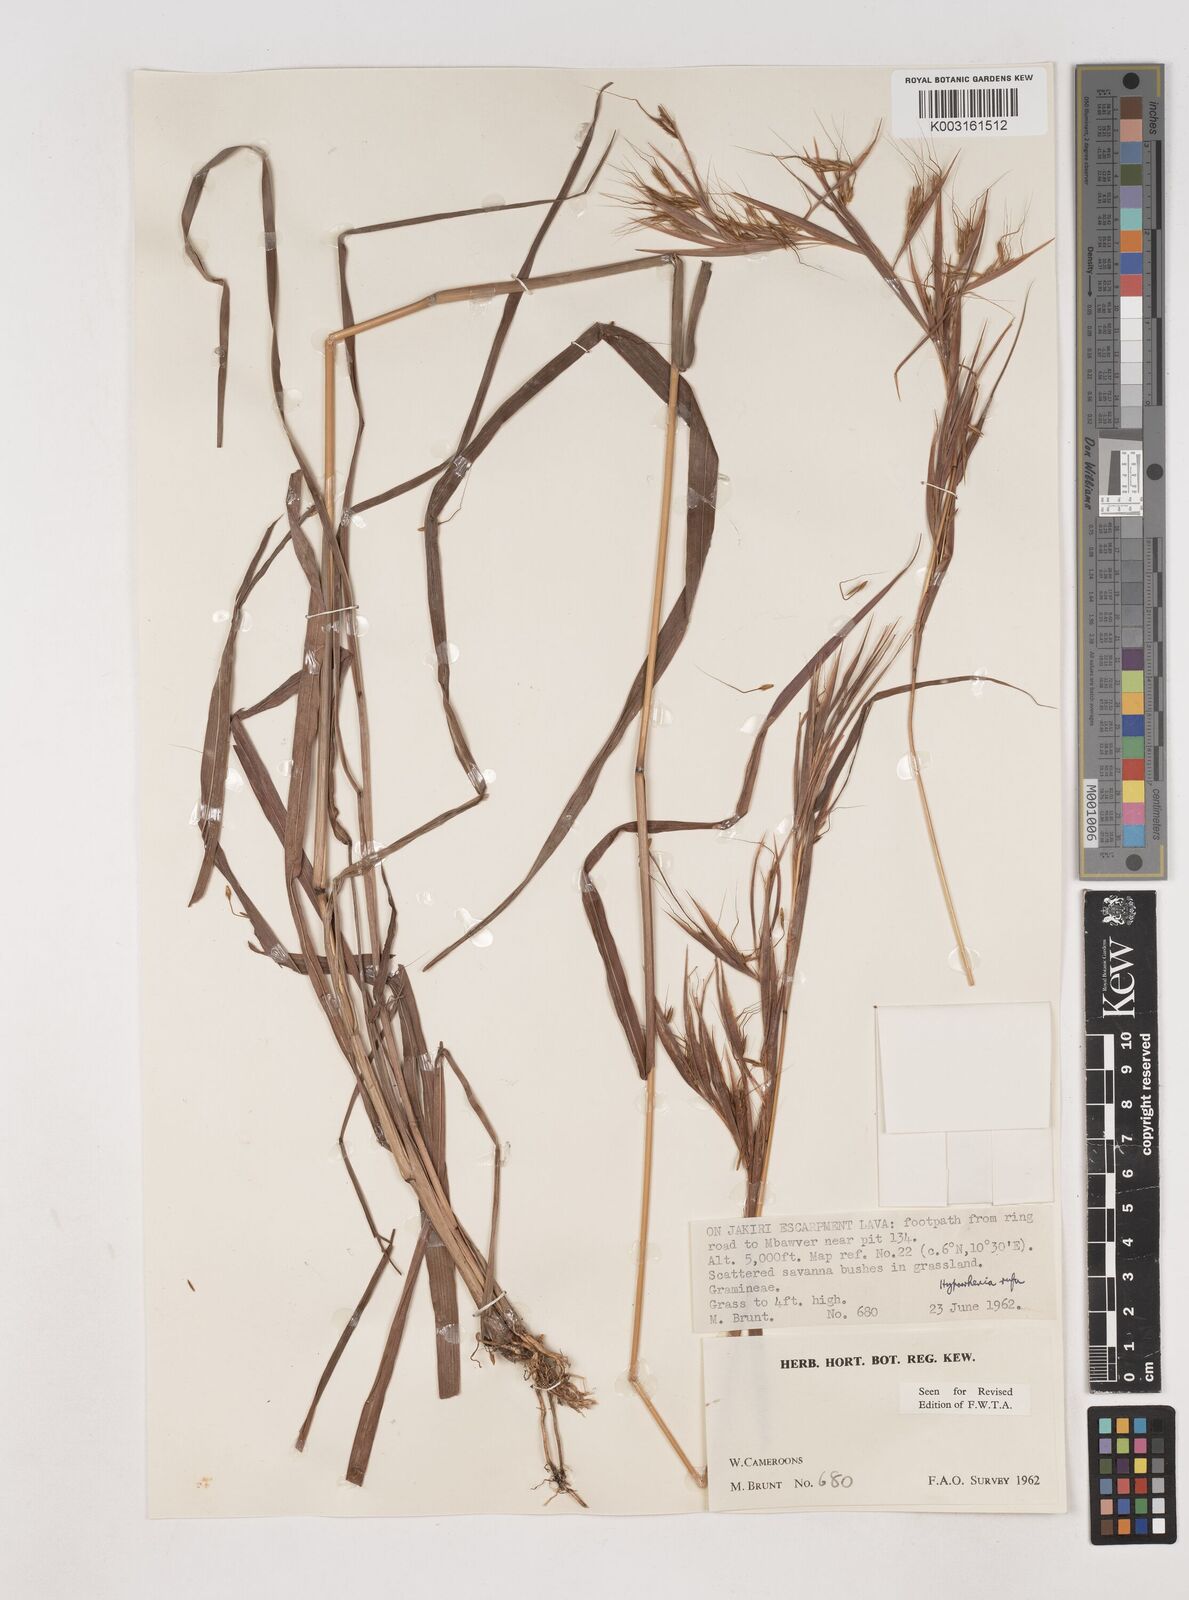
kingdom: Plantae
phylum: Tracheophyta
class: Liliopsida
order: Poales
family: Poaceae
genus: Hyparrhenia
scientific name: Hyparrhenia rufa
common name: Jaraguagrass
